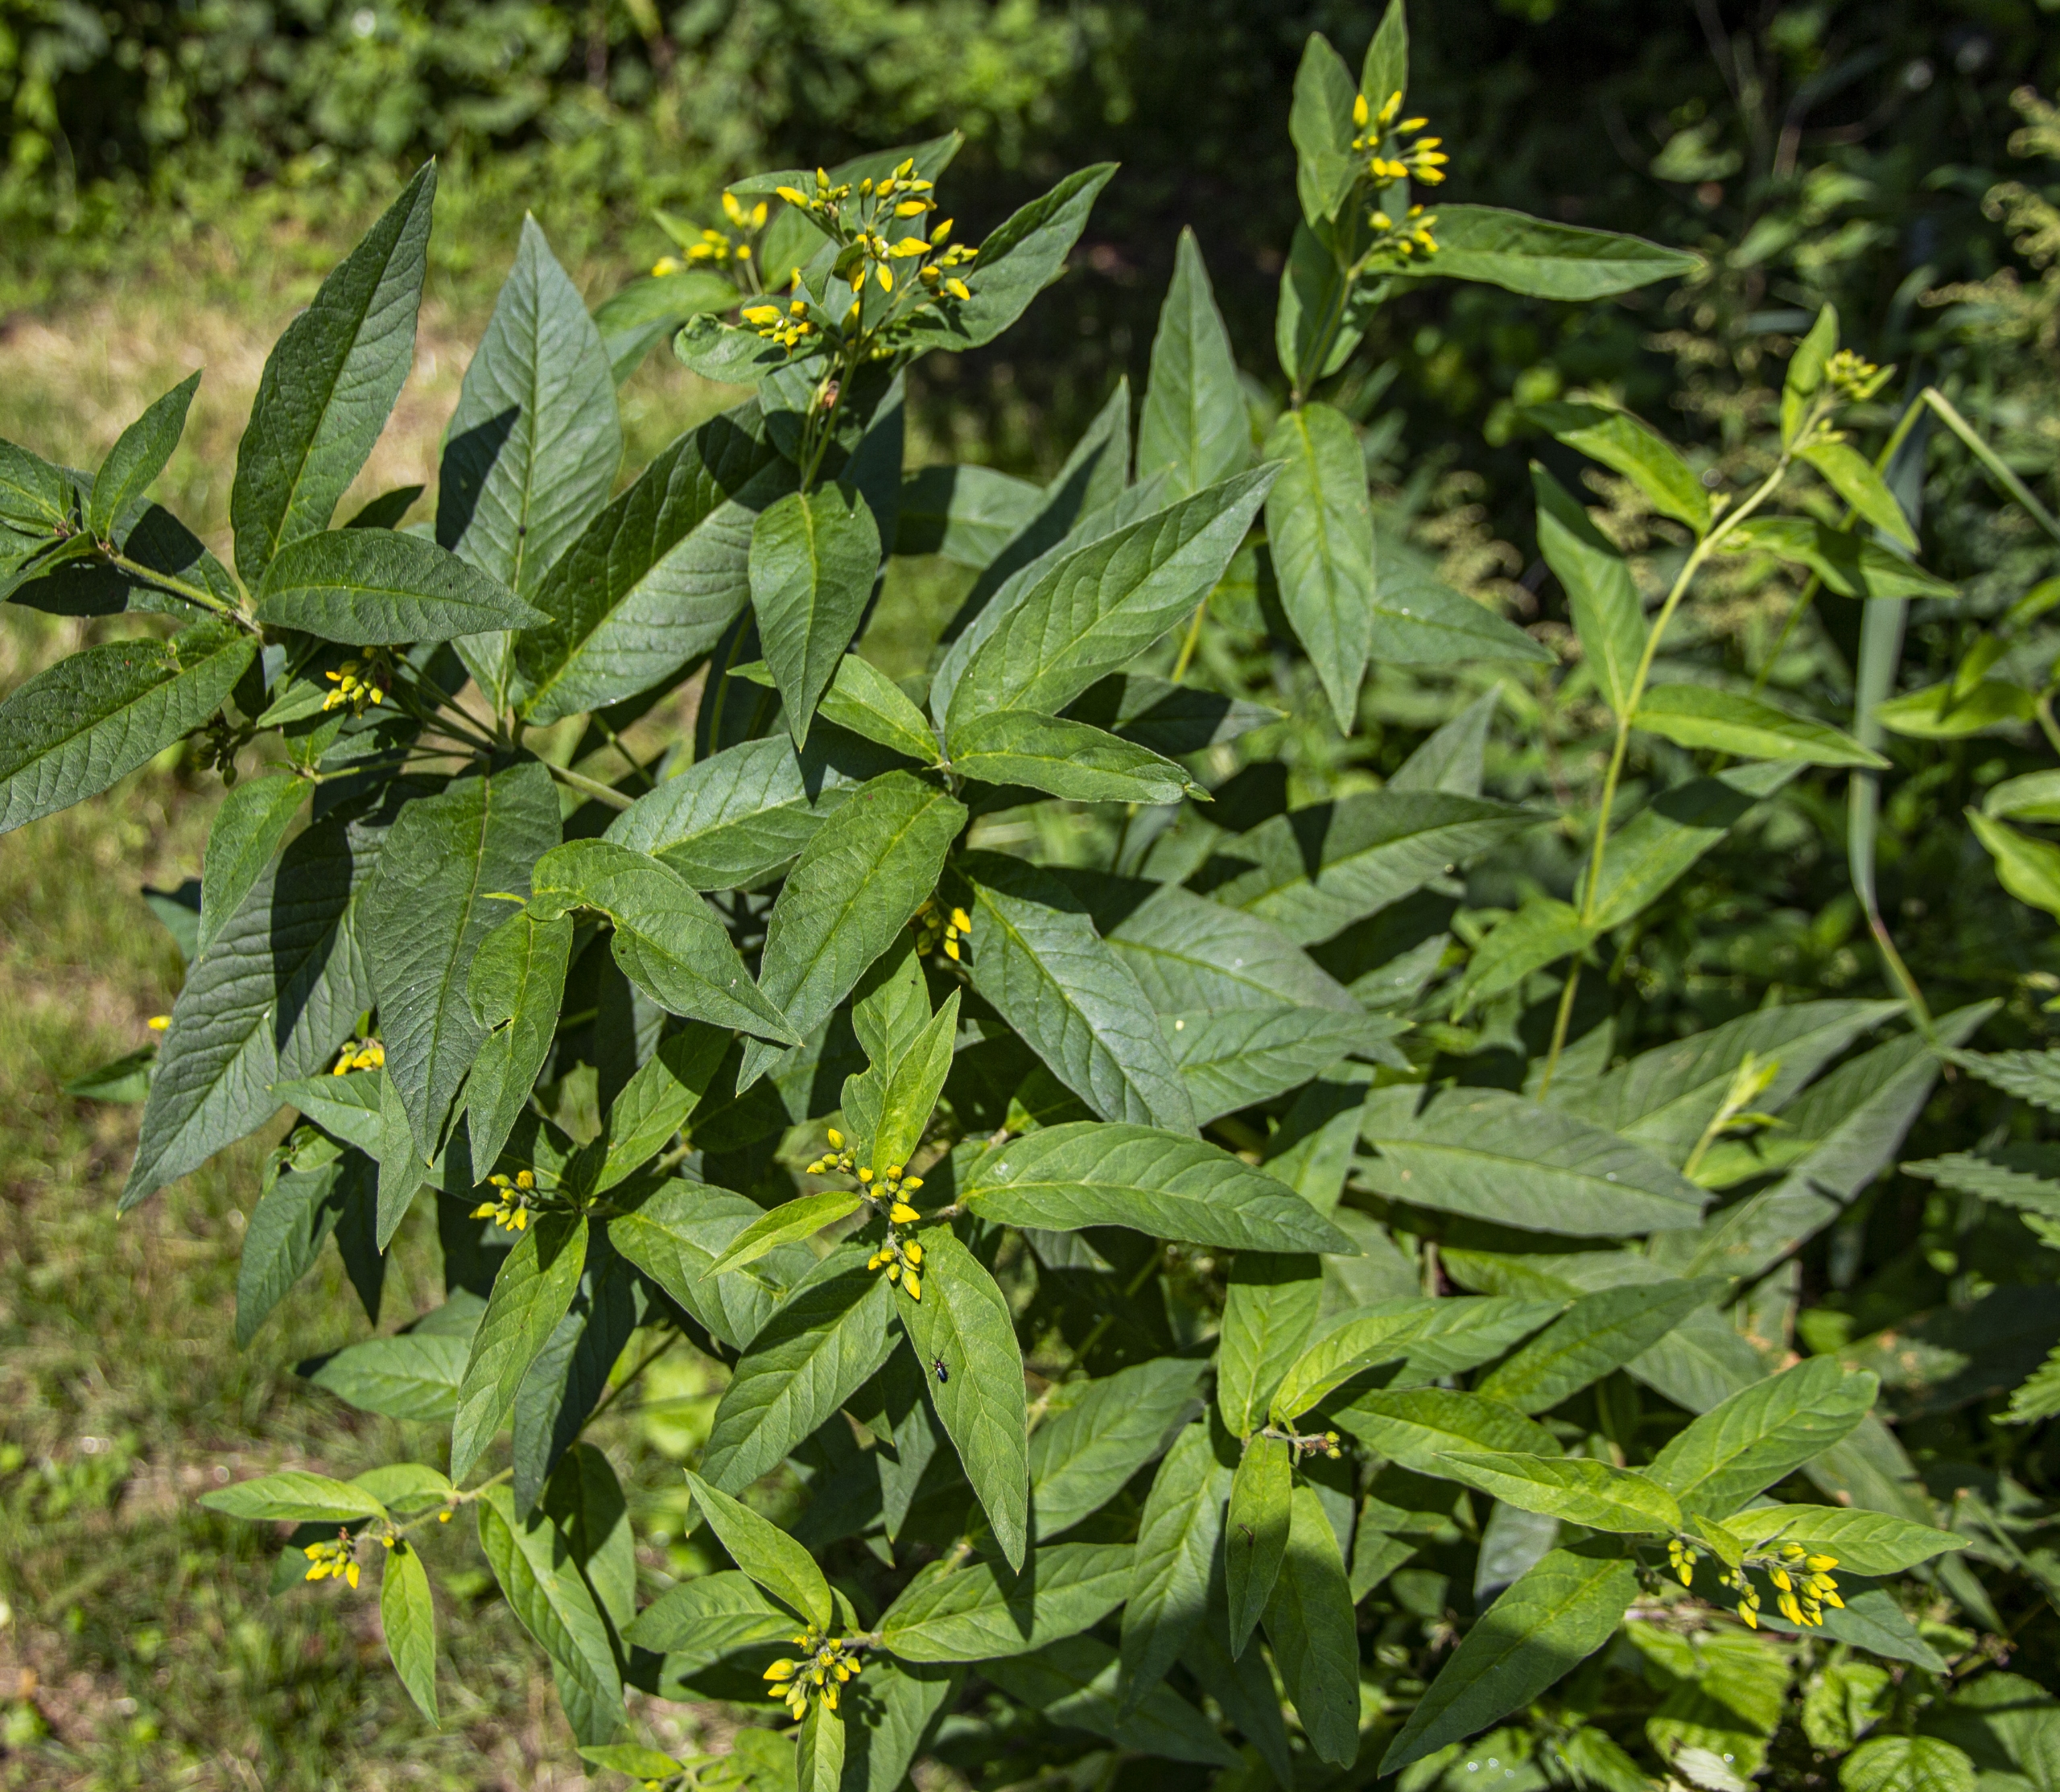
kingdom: Plantae
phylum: Tracheophyta
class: Magnoliopsida
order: Ericales
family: Primulaceae
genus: Lysimachia
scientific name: Lysimachia vulgaris
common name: Almindelig fredløs
